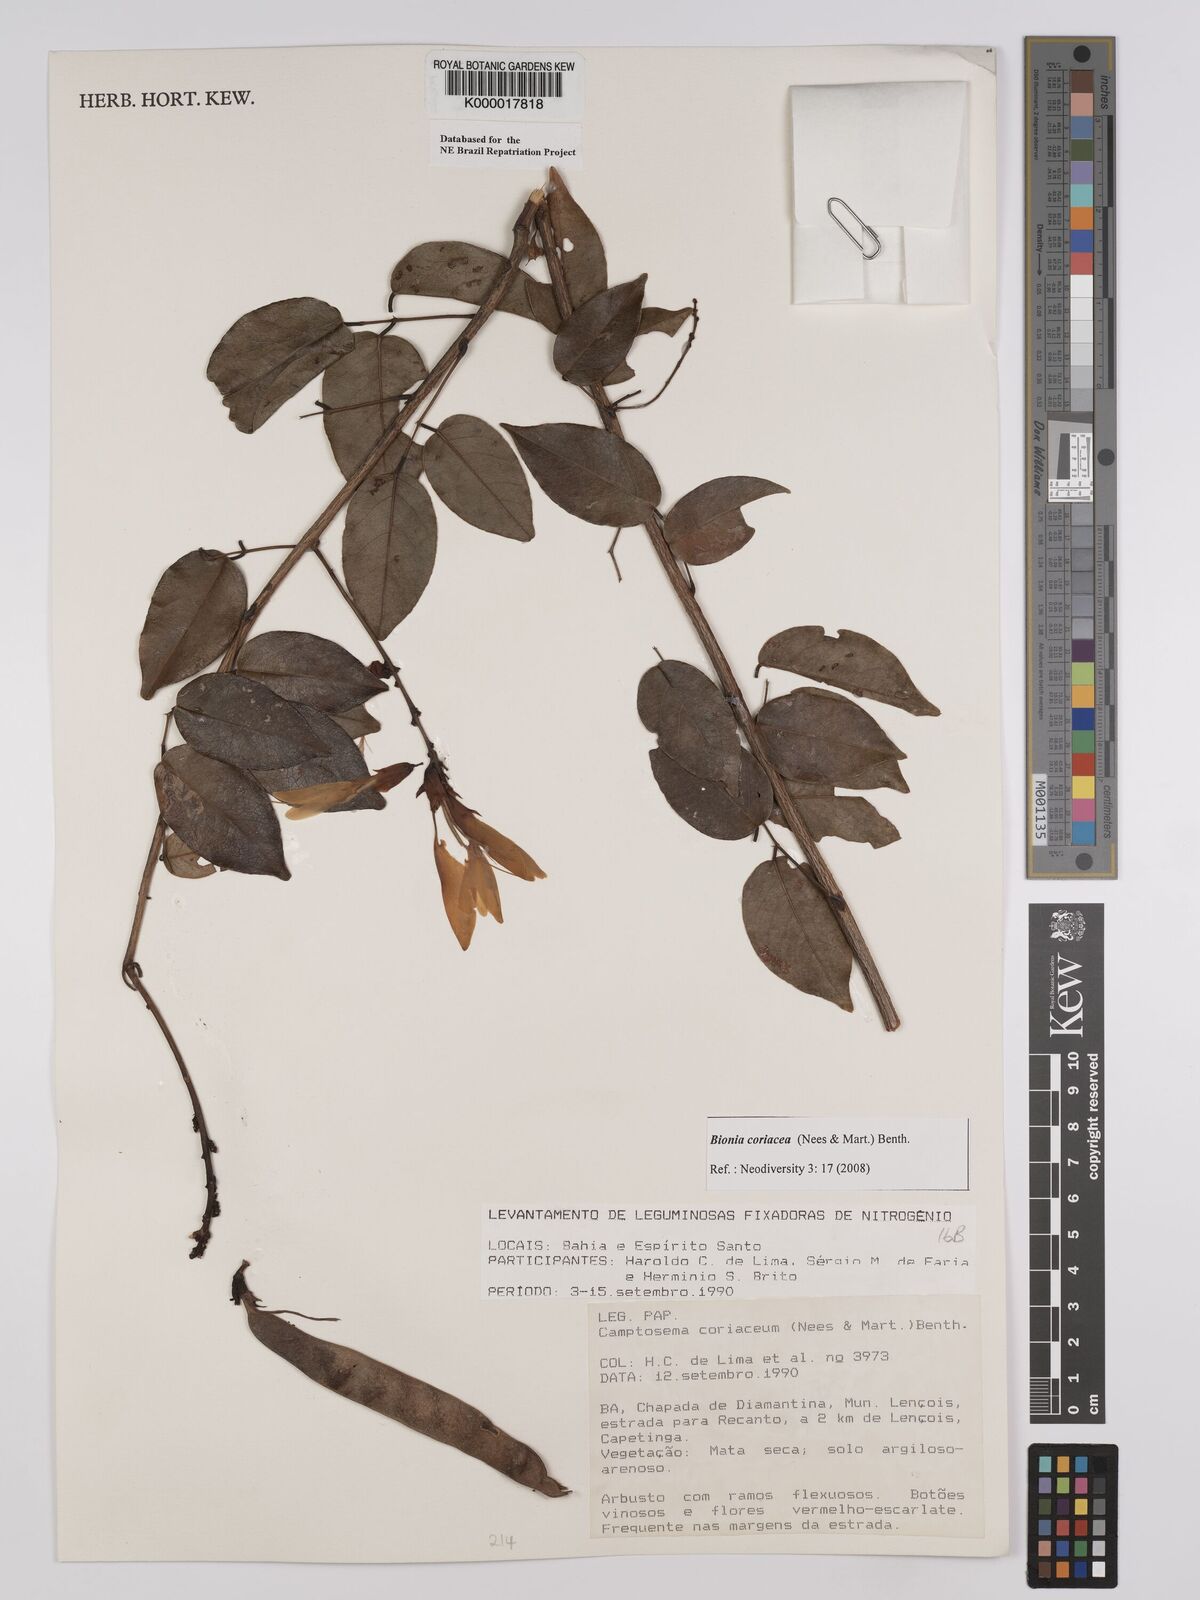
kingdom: Plantae
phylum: Tracheophyta
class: Magnoliopsida
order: Fabales
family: Fabaceae
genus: Camptosema
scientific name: Camptosema coriaceum
